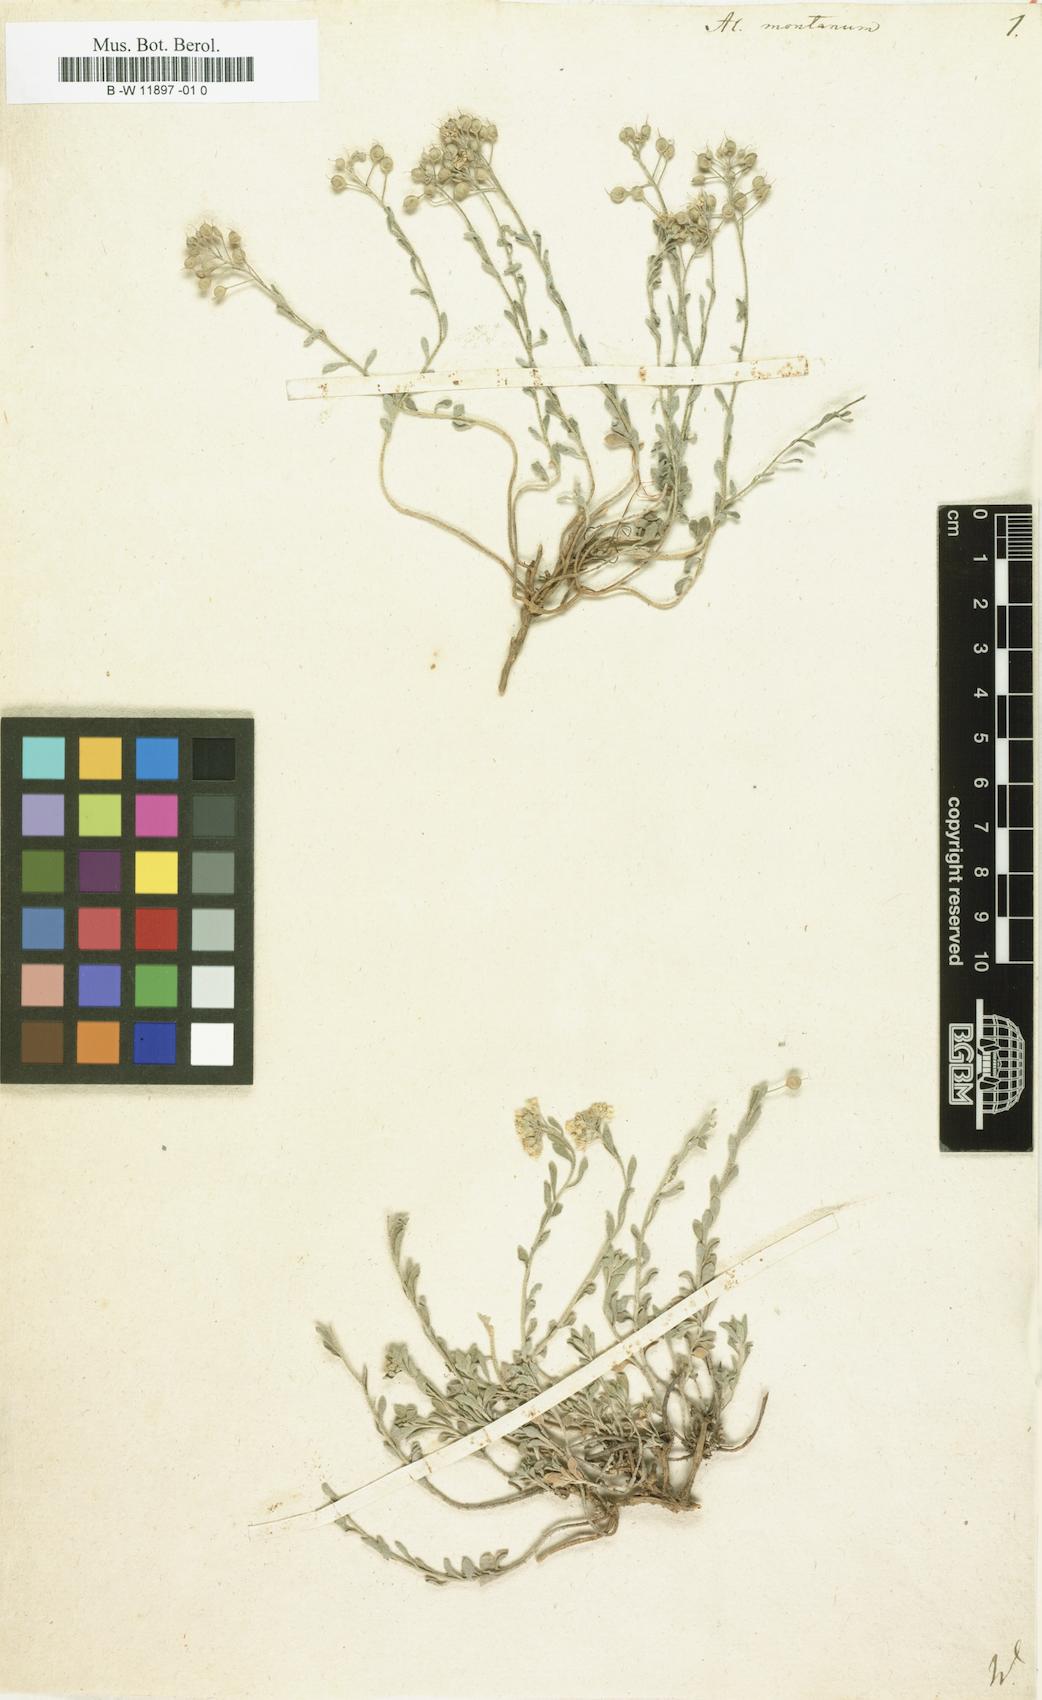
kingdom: Plantae
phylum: Tracheophyta
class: Magnoliopsida
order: Brassicales
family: Brassicaceae
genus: Alyssum
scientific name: Alyssum montanum
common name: Mountain alison
